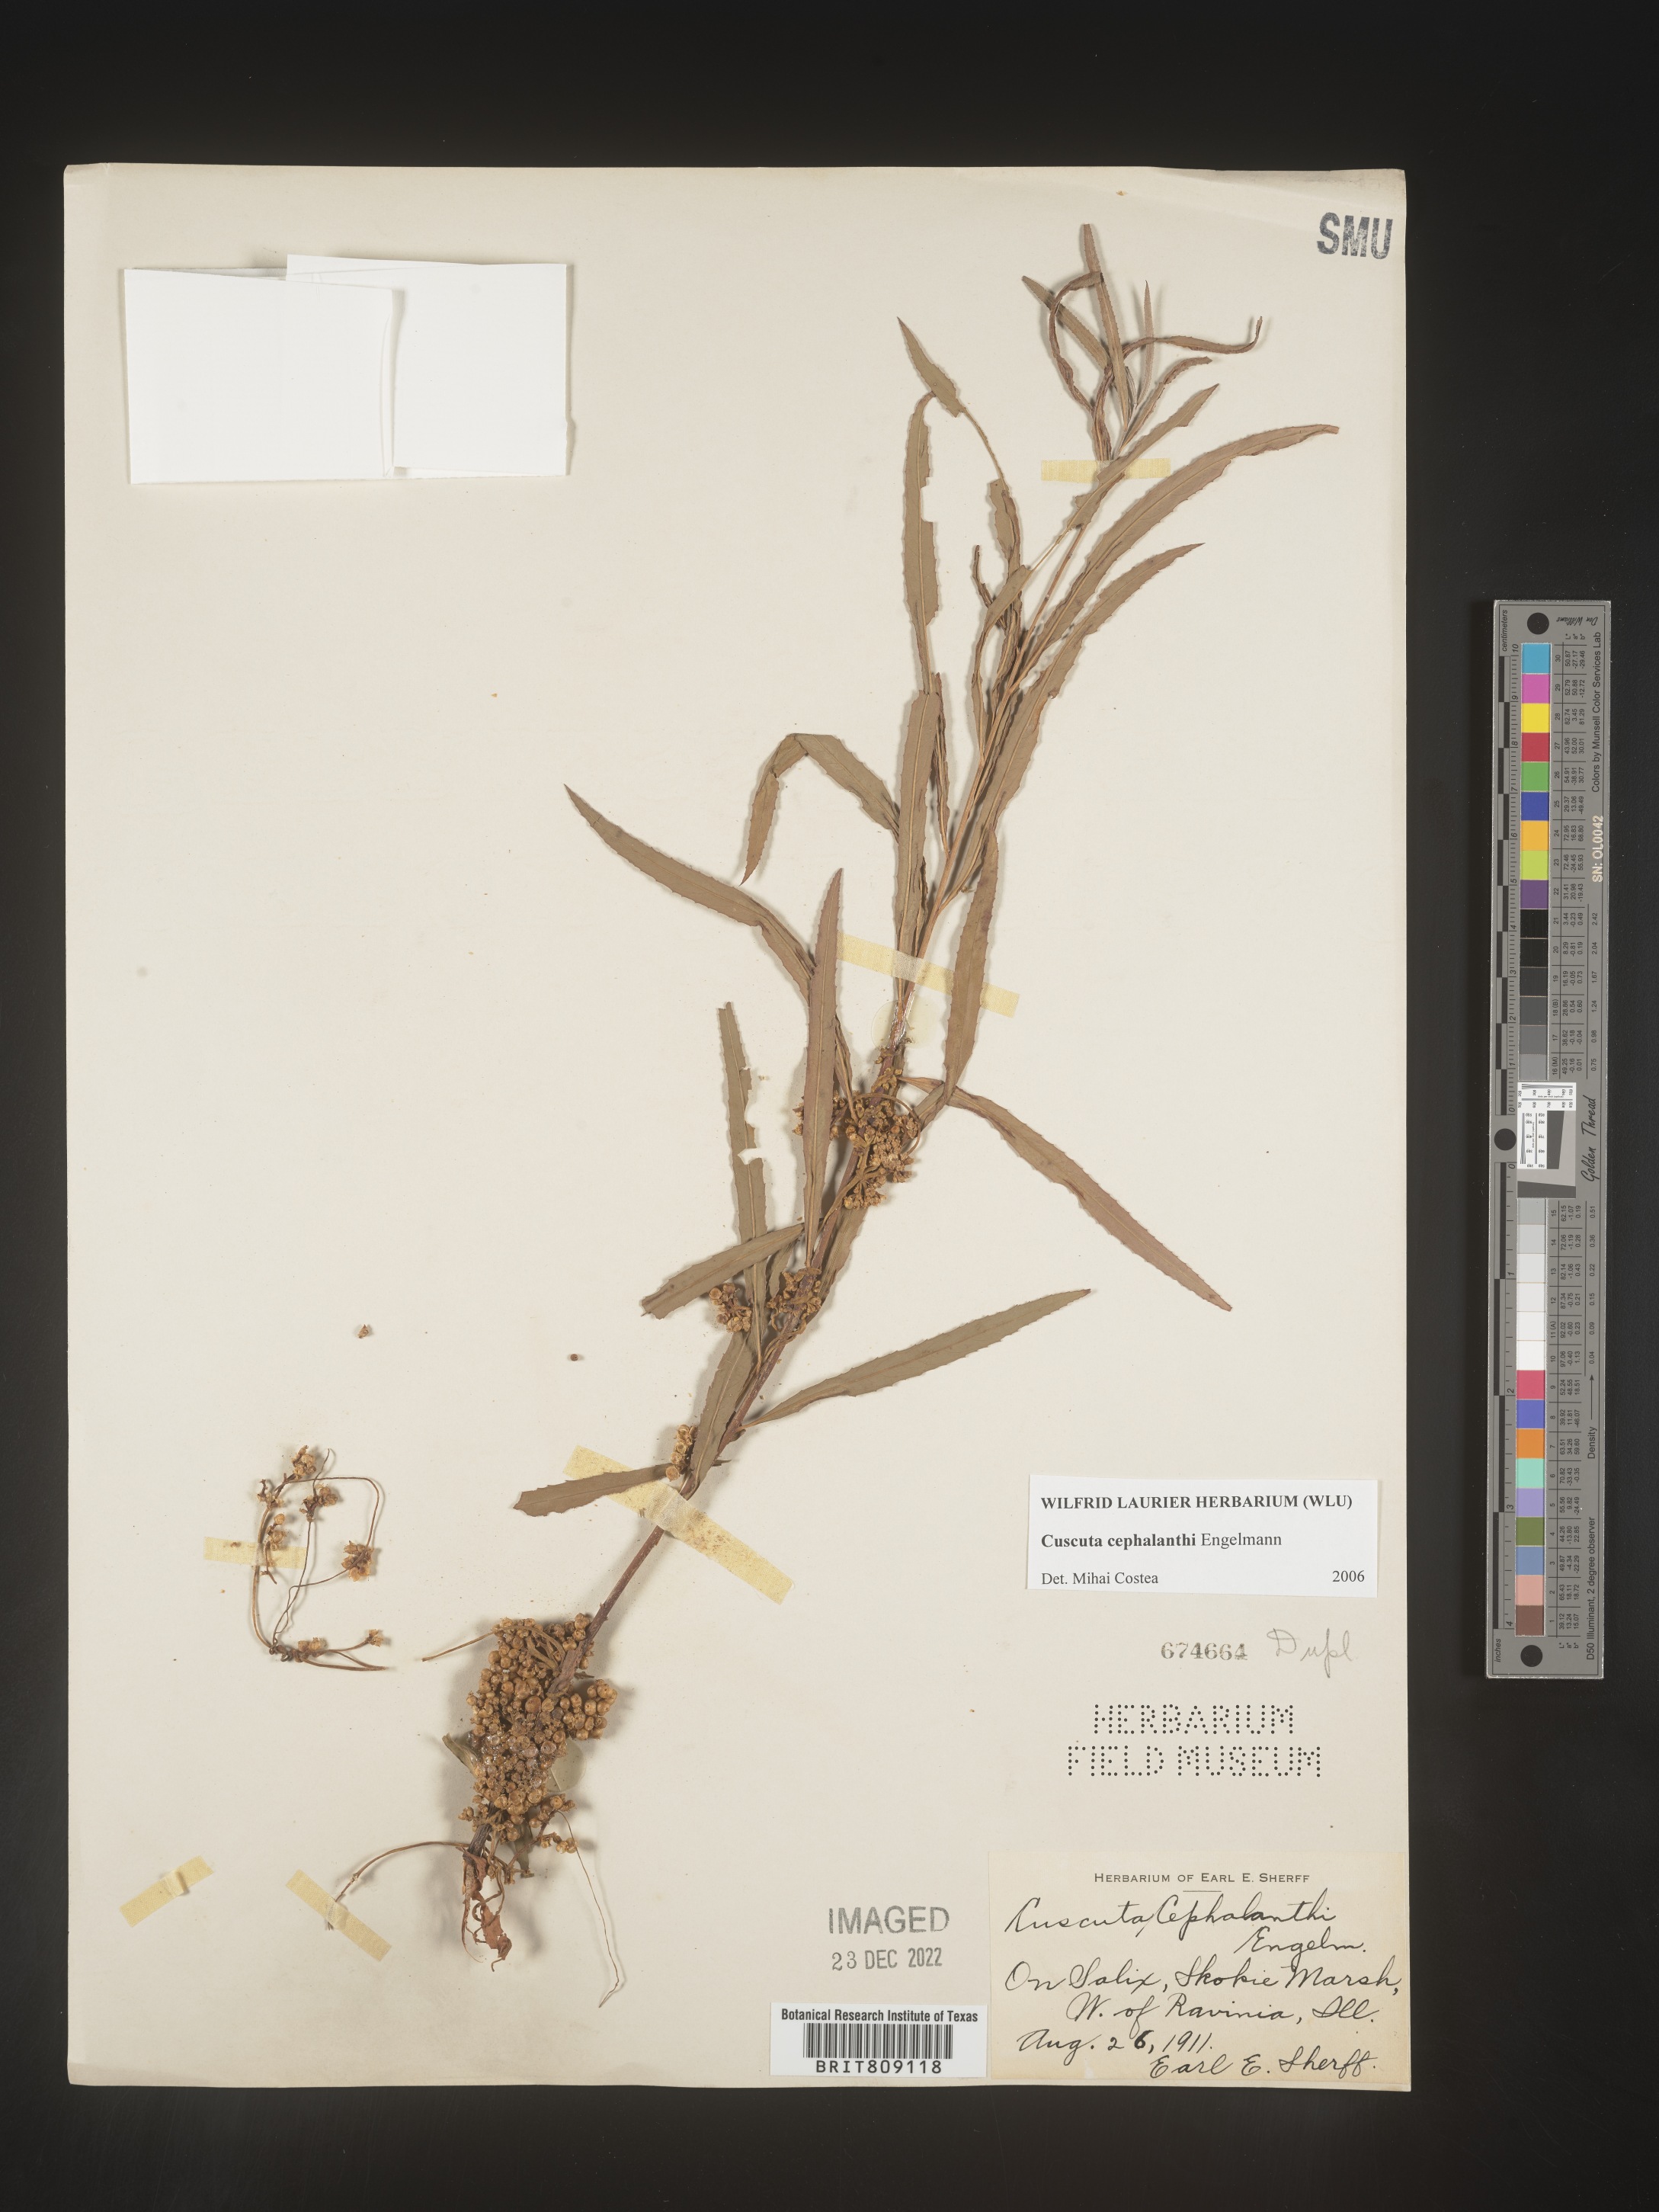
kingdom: Plantae
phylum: Tracheophyta
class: Magnoliopsida
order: Solanales
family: Convolvulaceae
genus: Cuscuta
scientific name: Cuscuta cephalanthi
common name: Button dodder
